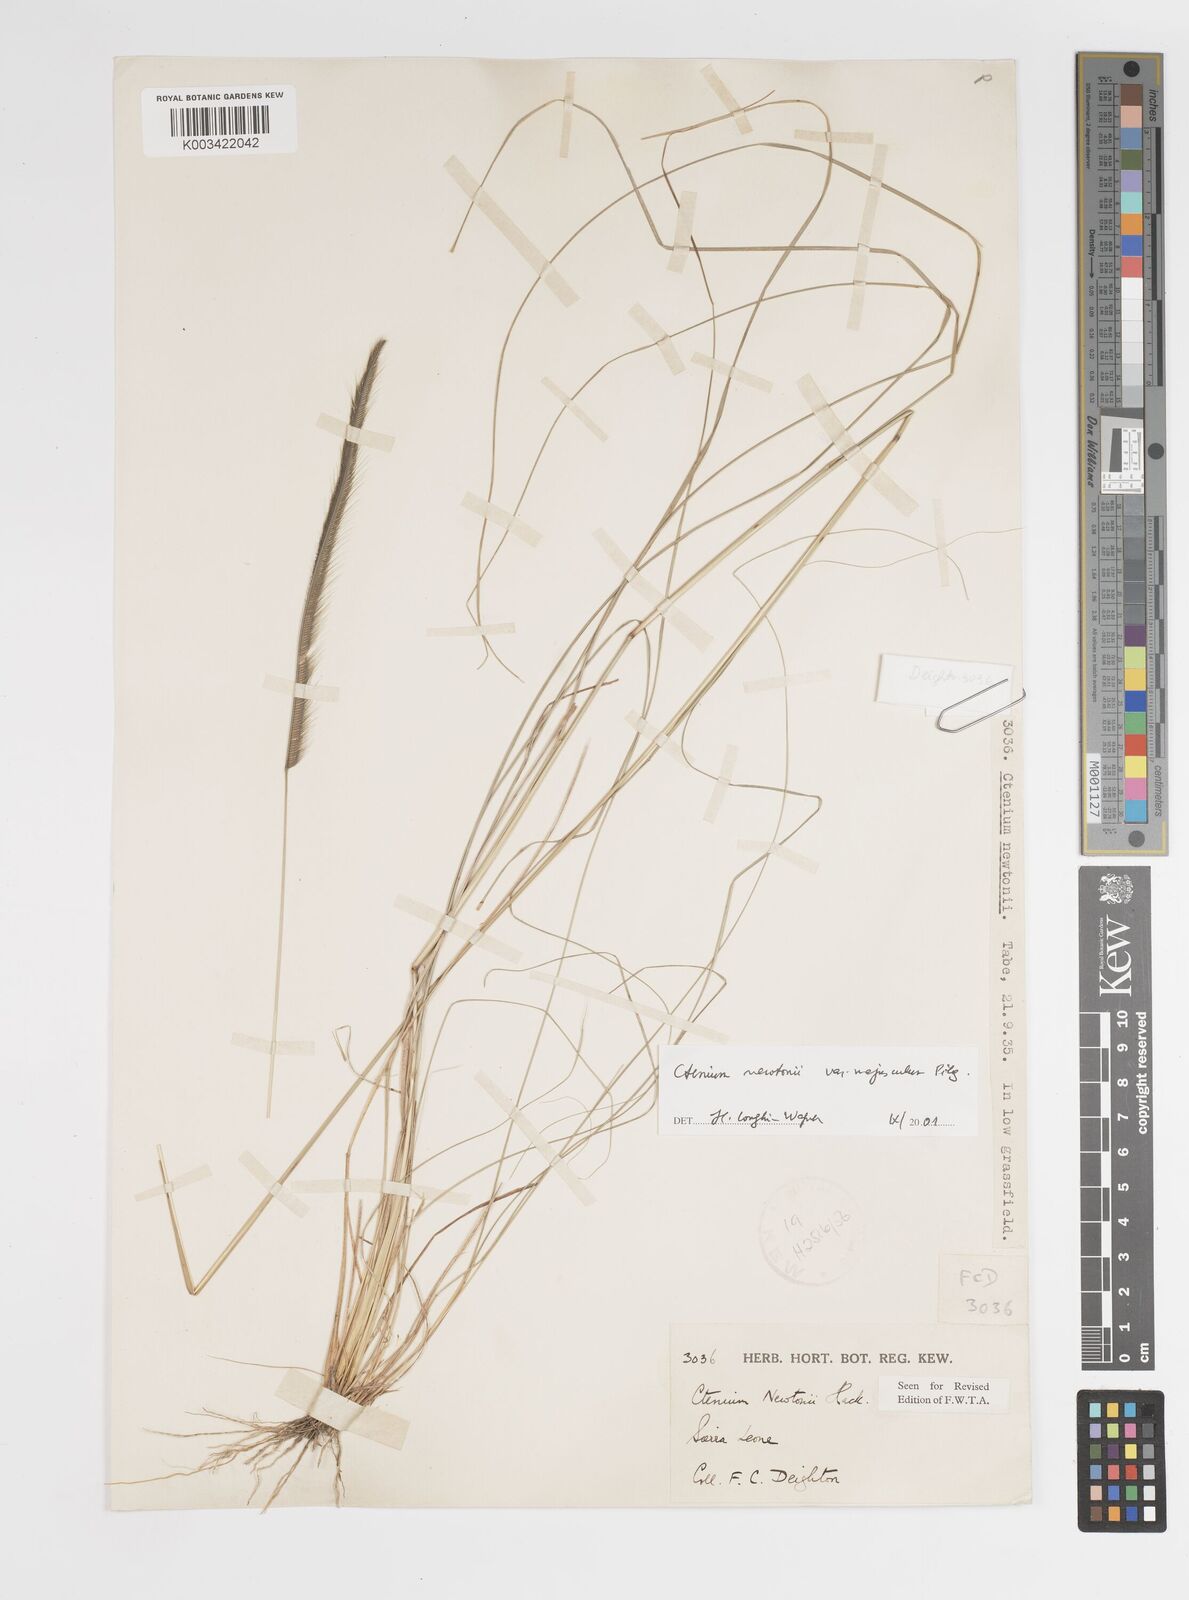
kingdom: Plantae
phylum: Tracheophyta
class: Liliopsida
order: Poales
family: Poaceae
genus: Ctenium
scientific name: Ctenium newtonii
